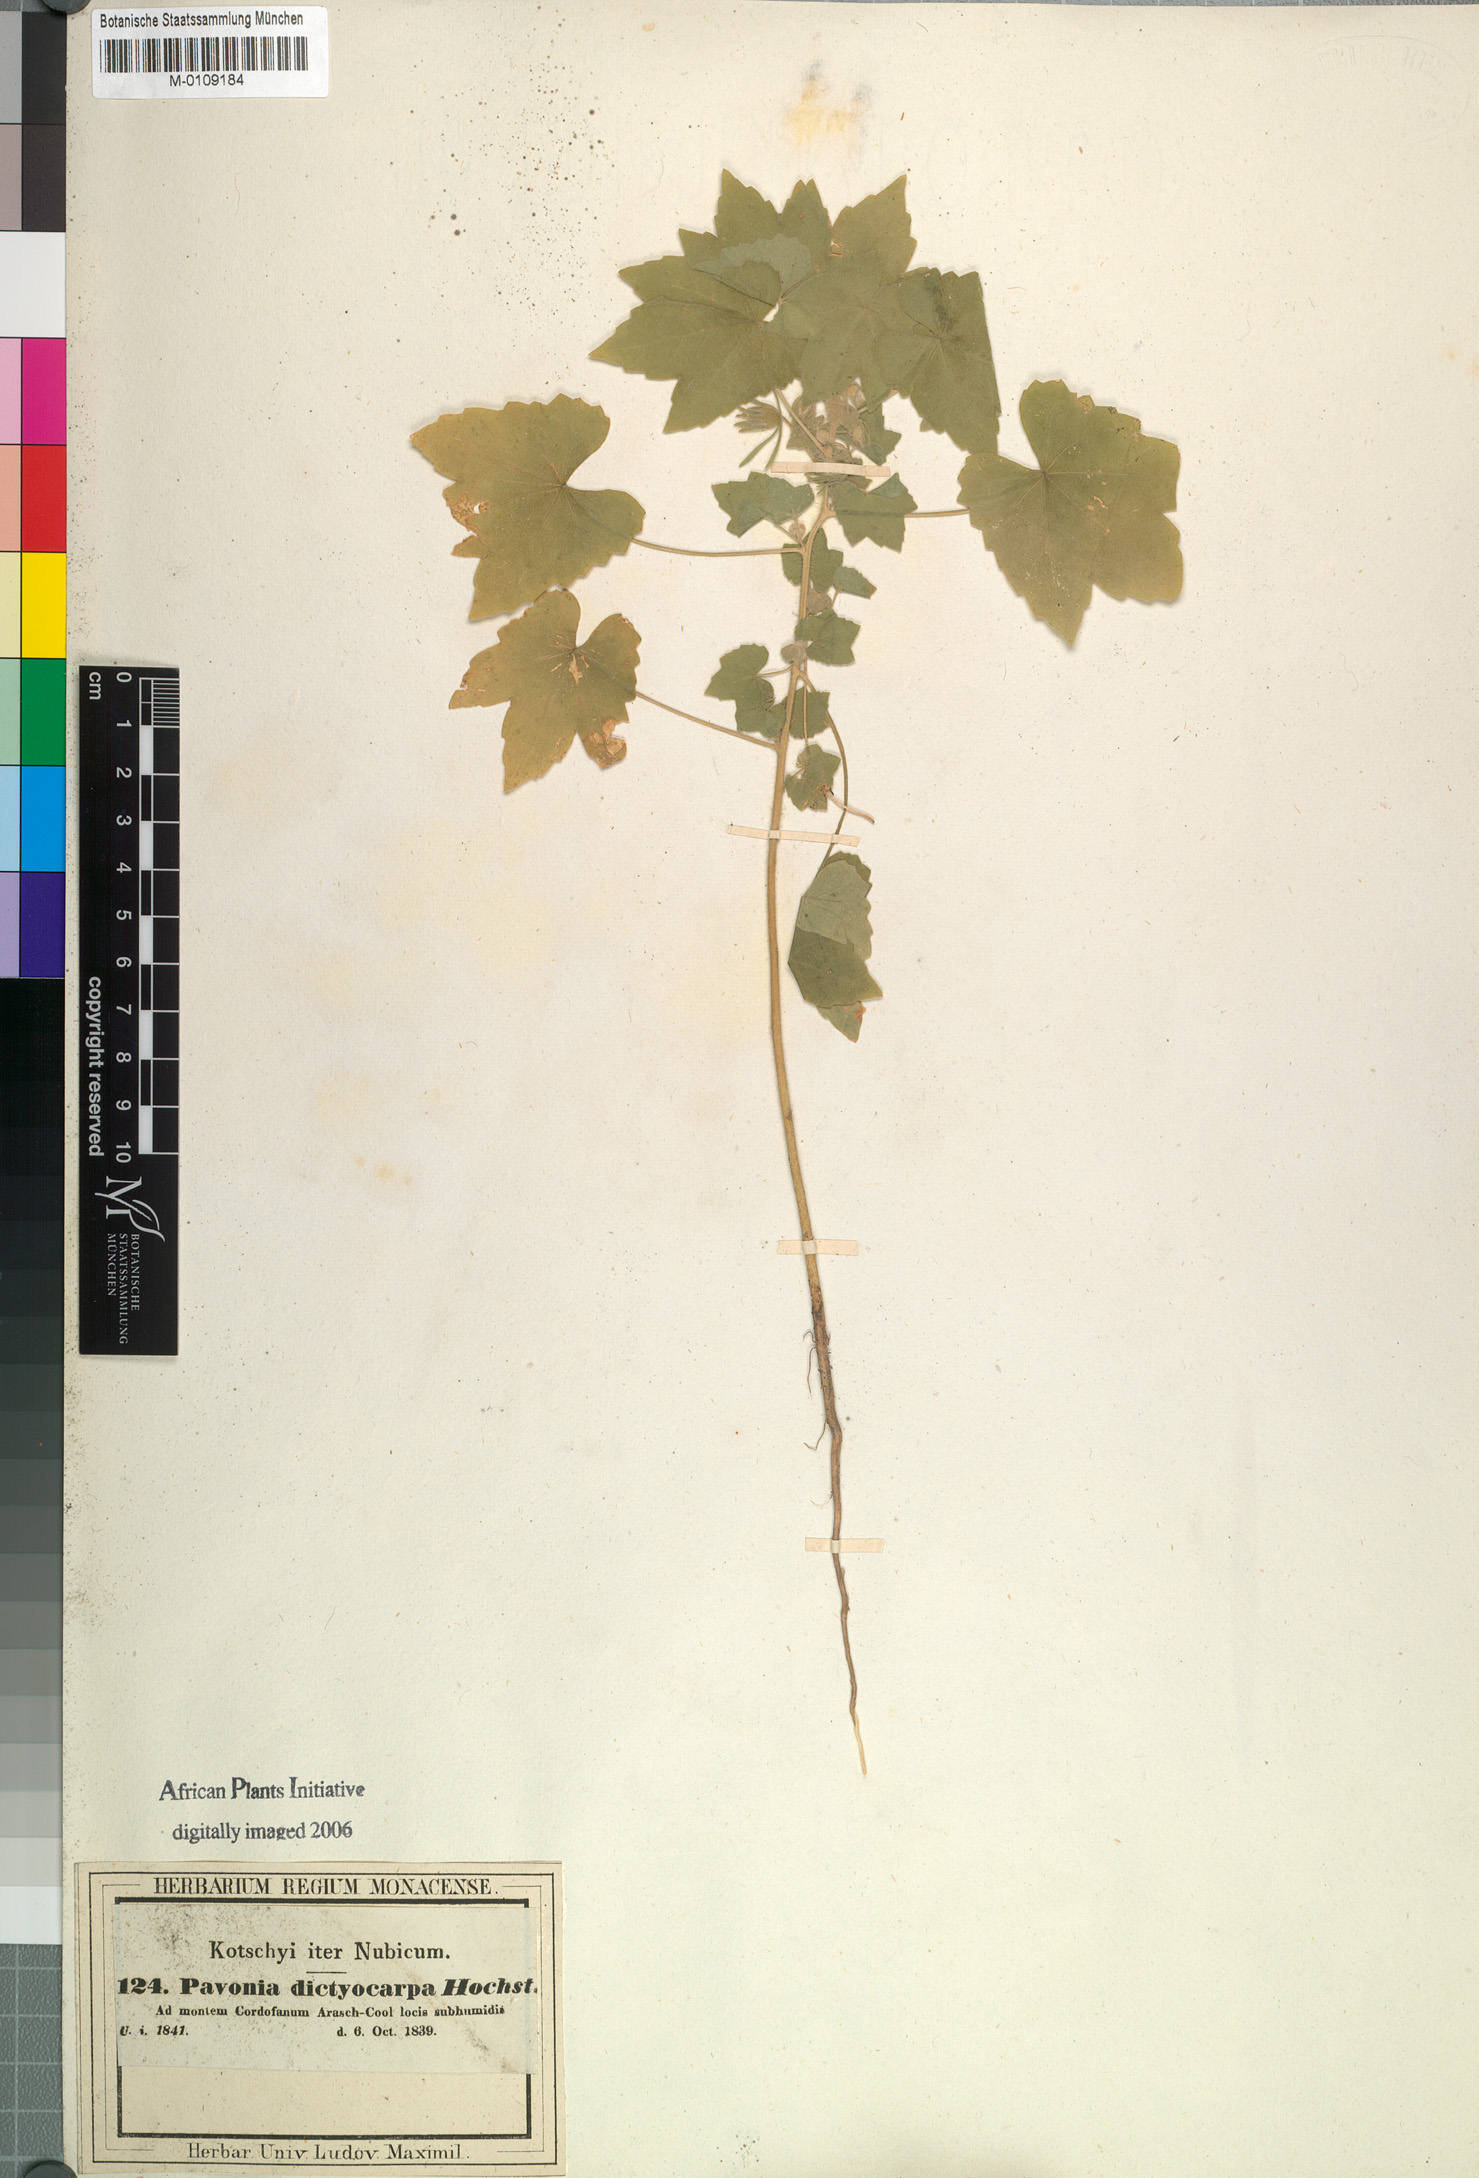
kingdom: Plantae
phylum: Tracheophyta
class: Magnoliopsida
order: Malvales
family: Malvaceae
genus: Roifia
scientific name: Roifia dictyocarpa
